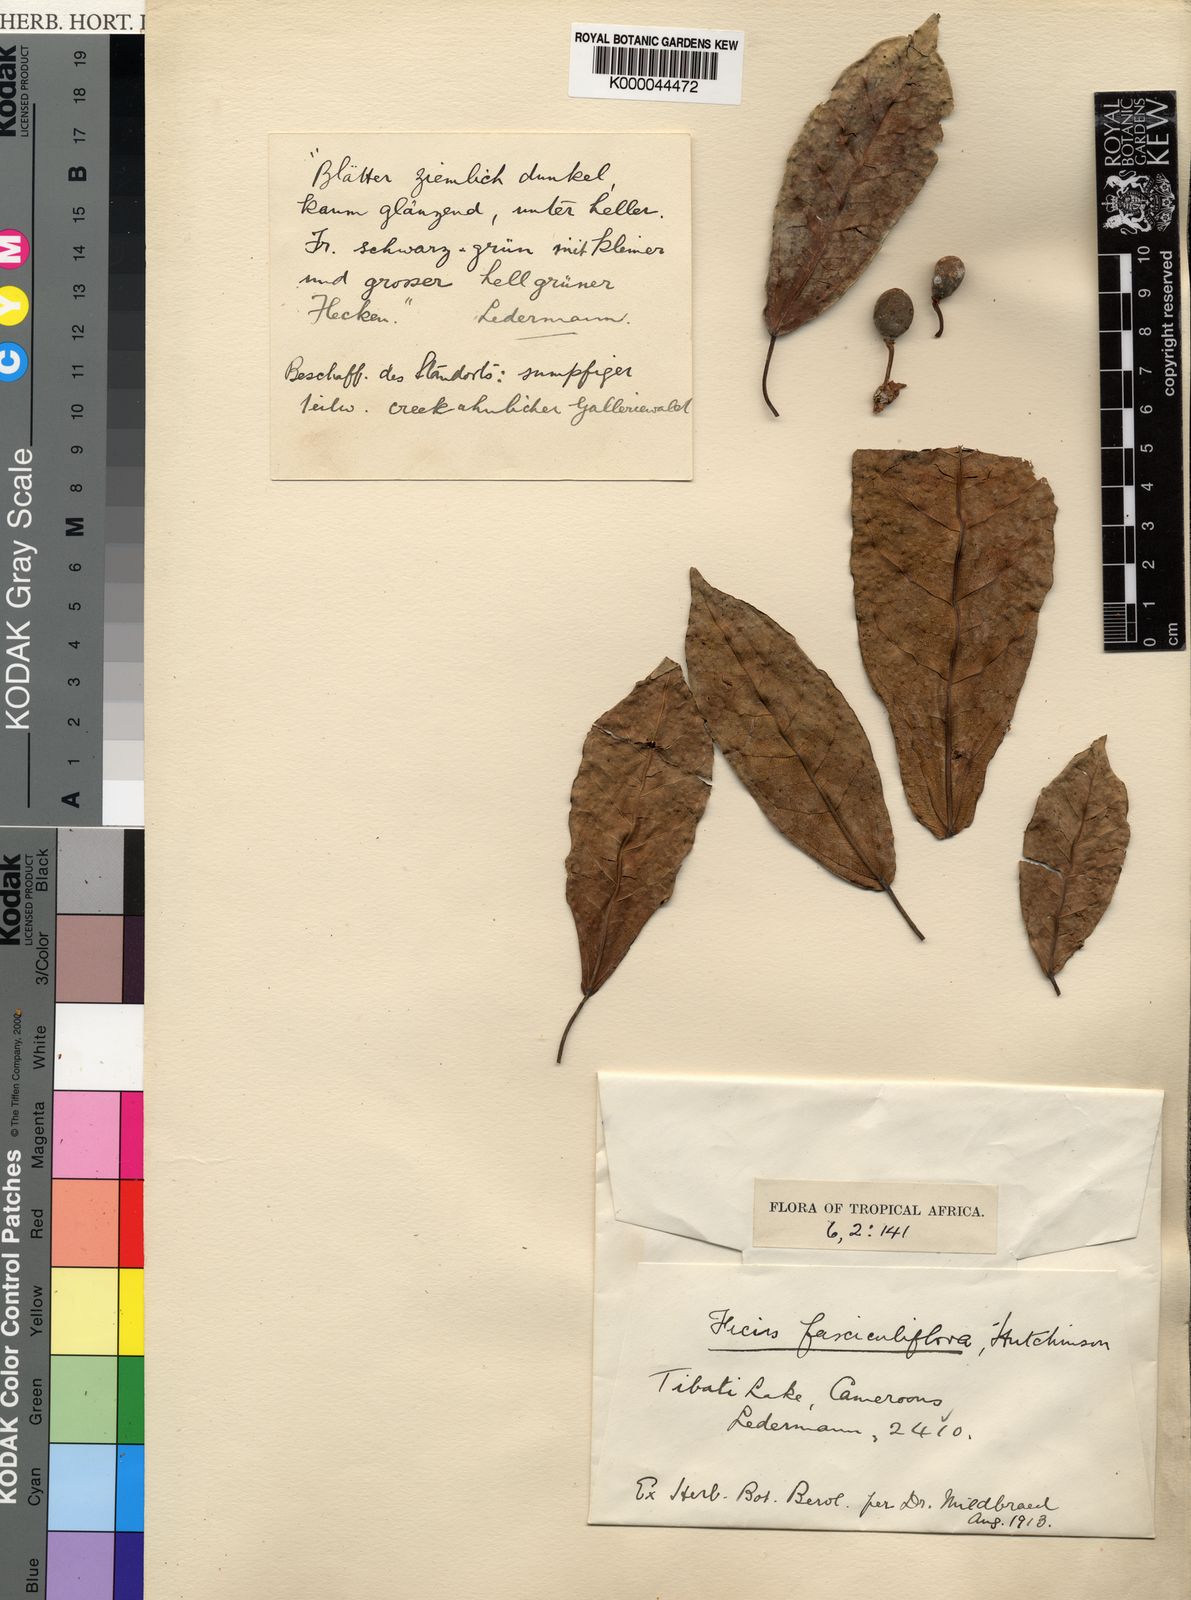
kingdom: Plantae
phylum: Tracheophyta
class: Magnoliopsida
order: Rosales
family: Moraceae
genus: Ficus
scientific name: Ficus ottoniifolia
